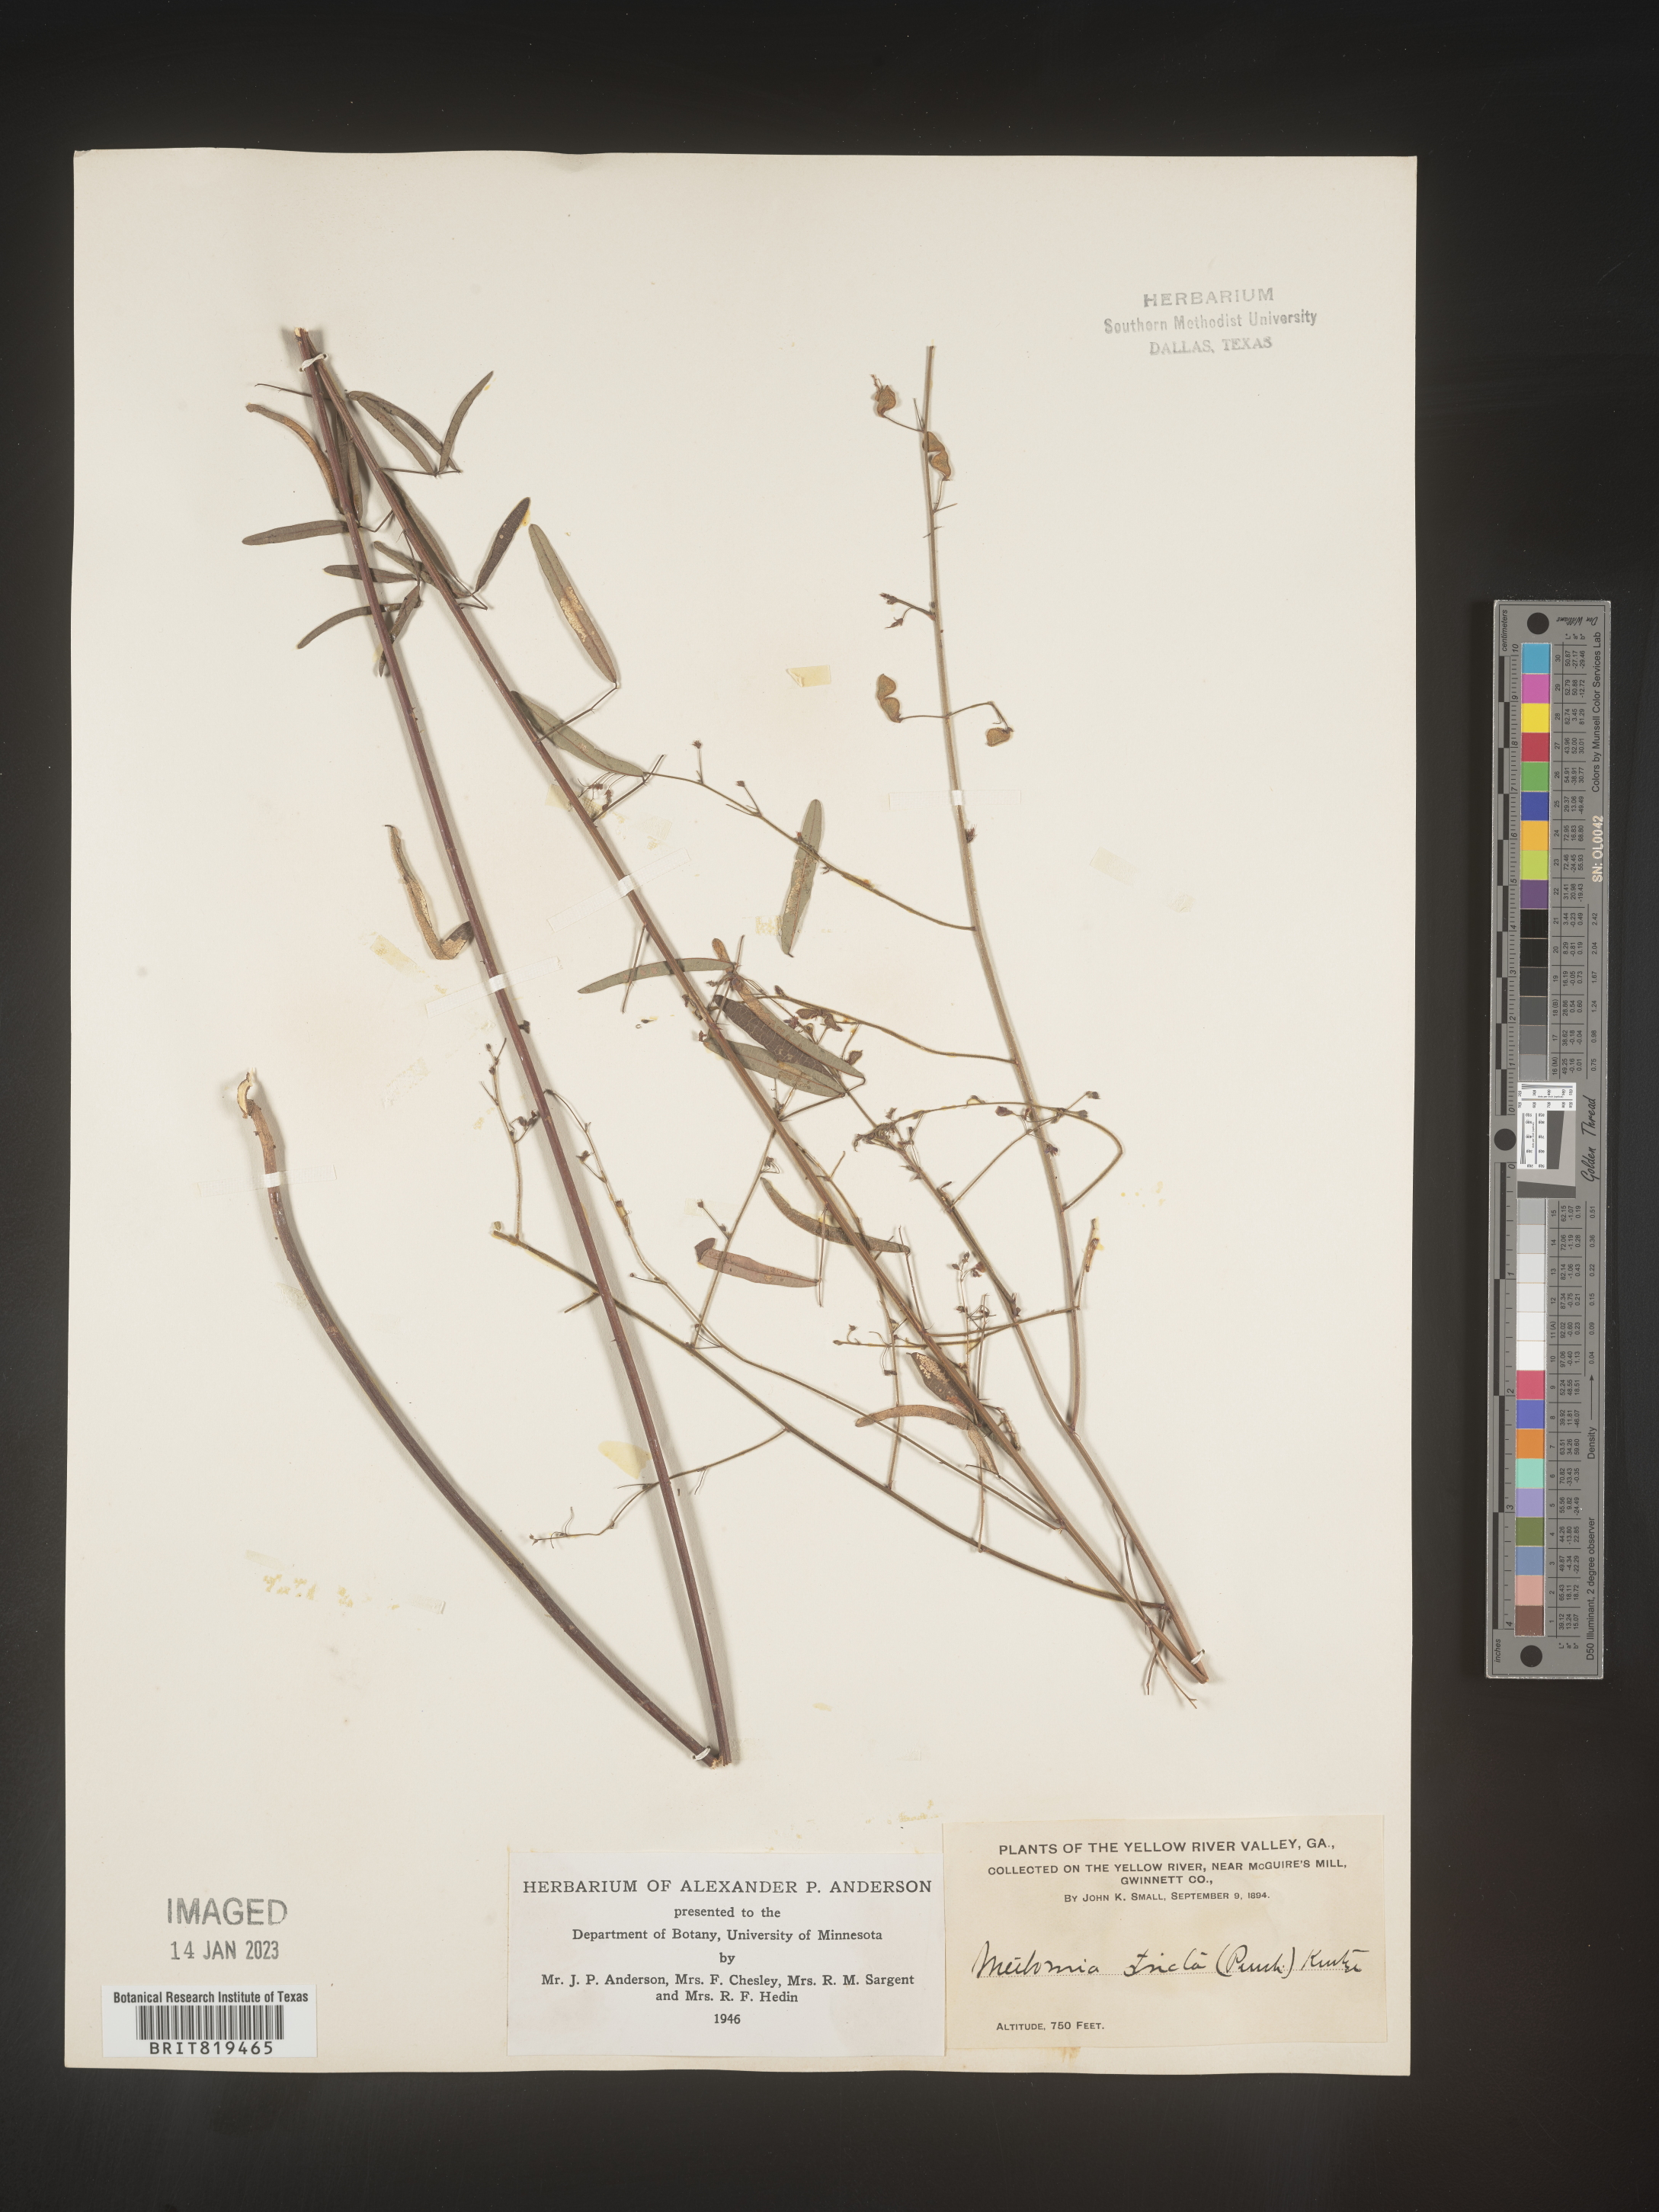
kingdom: Plantae
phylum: Tracheophyta
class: Magnoliopsida
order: Fabales
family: Fabaceae
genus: Desmodium
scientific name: Desmodium strictum
